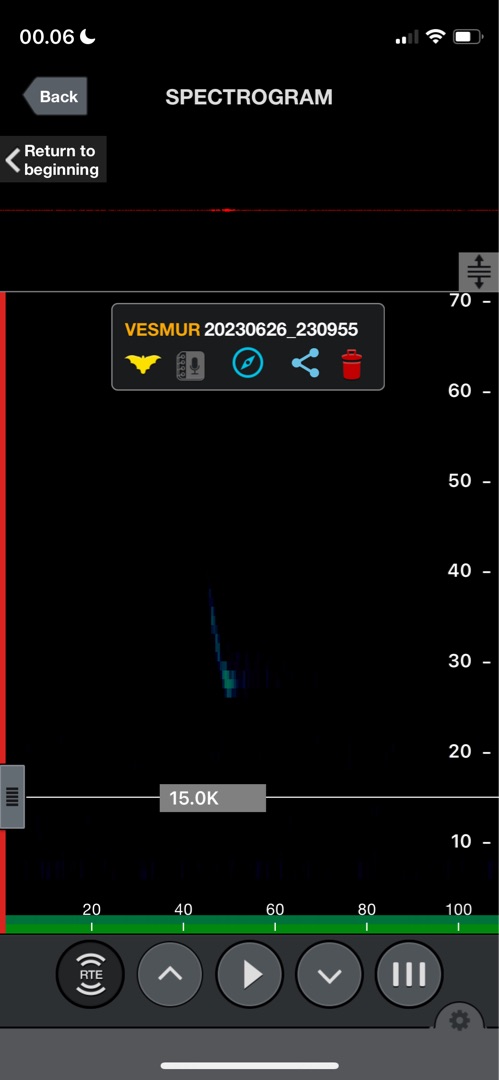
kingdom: Animalia
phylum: Chordata
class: Mammalia
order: Chiroptera
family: Vespertilionidae
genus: Vespertilio
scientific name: Vespertilio murinus
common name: Skimmelflagermus
